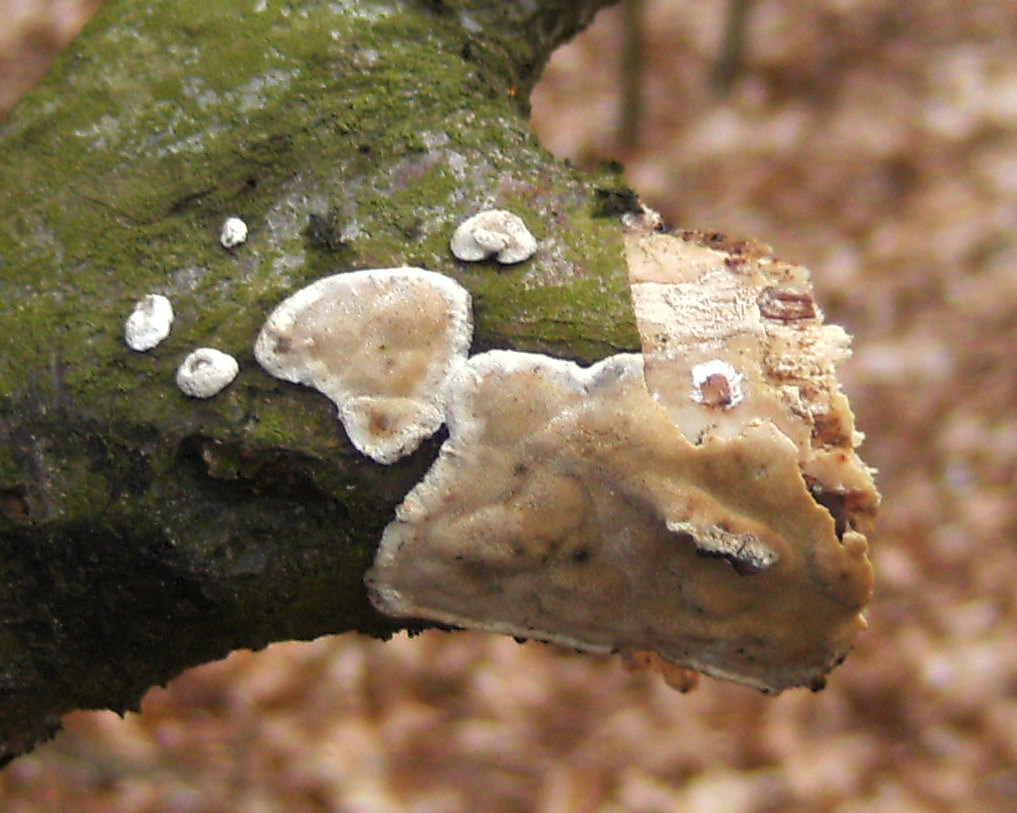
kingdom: Fungi
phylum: Basidiomycota
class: Agaricomycetes
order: Polyporales
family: Incrustoporiaceae
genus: Skeletocutis
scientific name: Skeletocutis nemoralis
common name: stor krystalporesvamp
